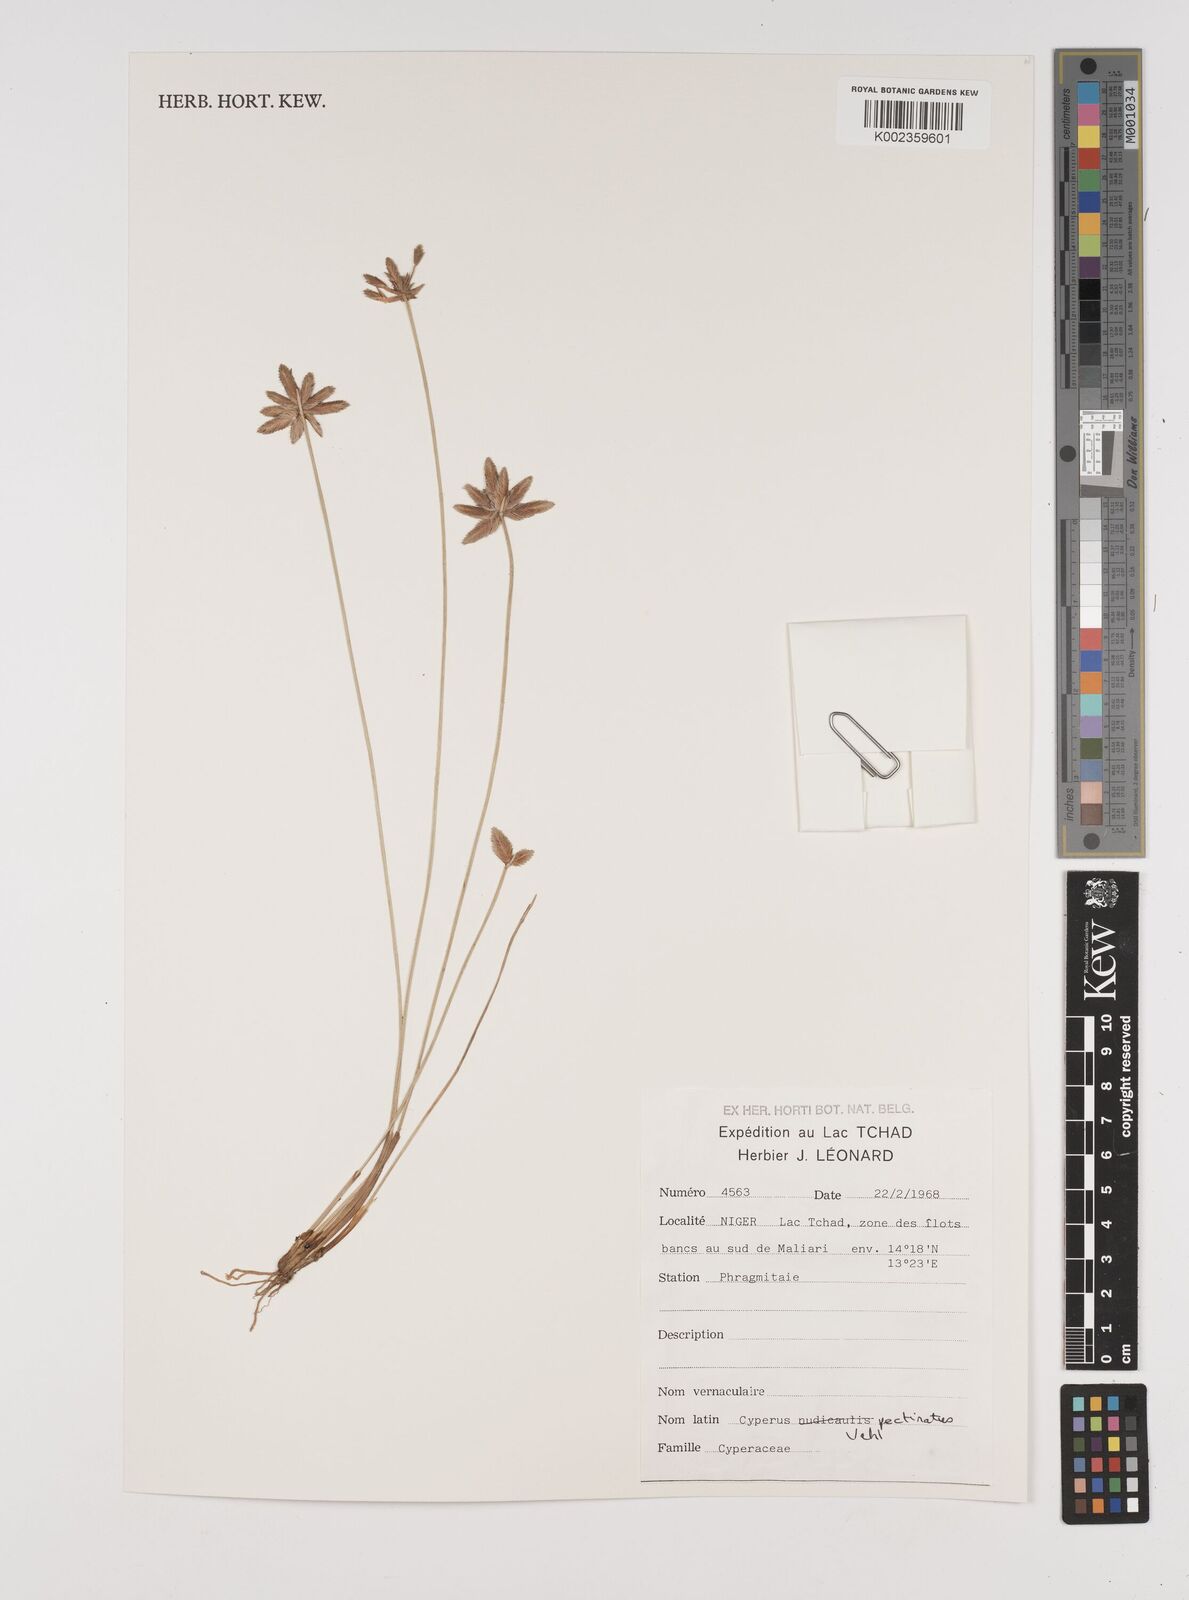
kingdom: Plantae
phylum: Tracheophyta
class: Liliopsida
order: Poales
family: Cyperaceae
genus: Cyperus
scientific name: Cyperus pectinatus
